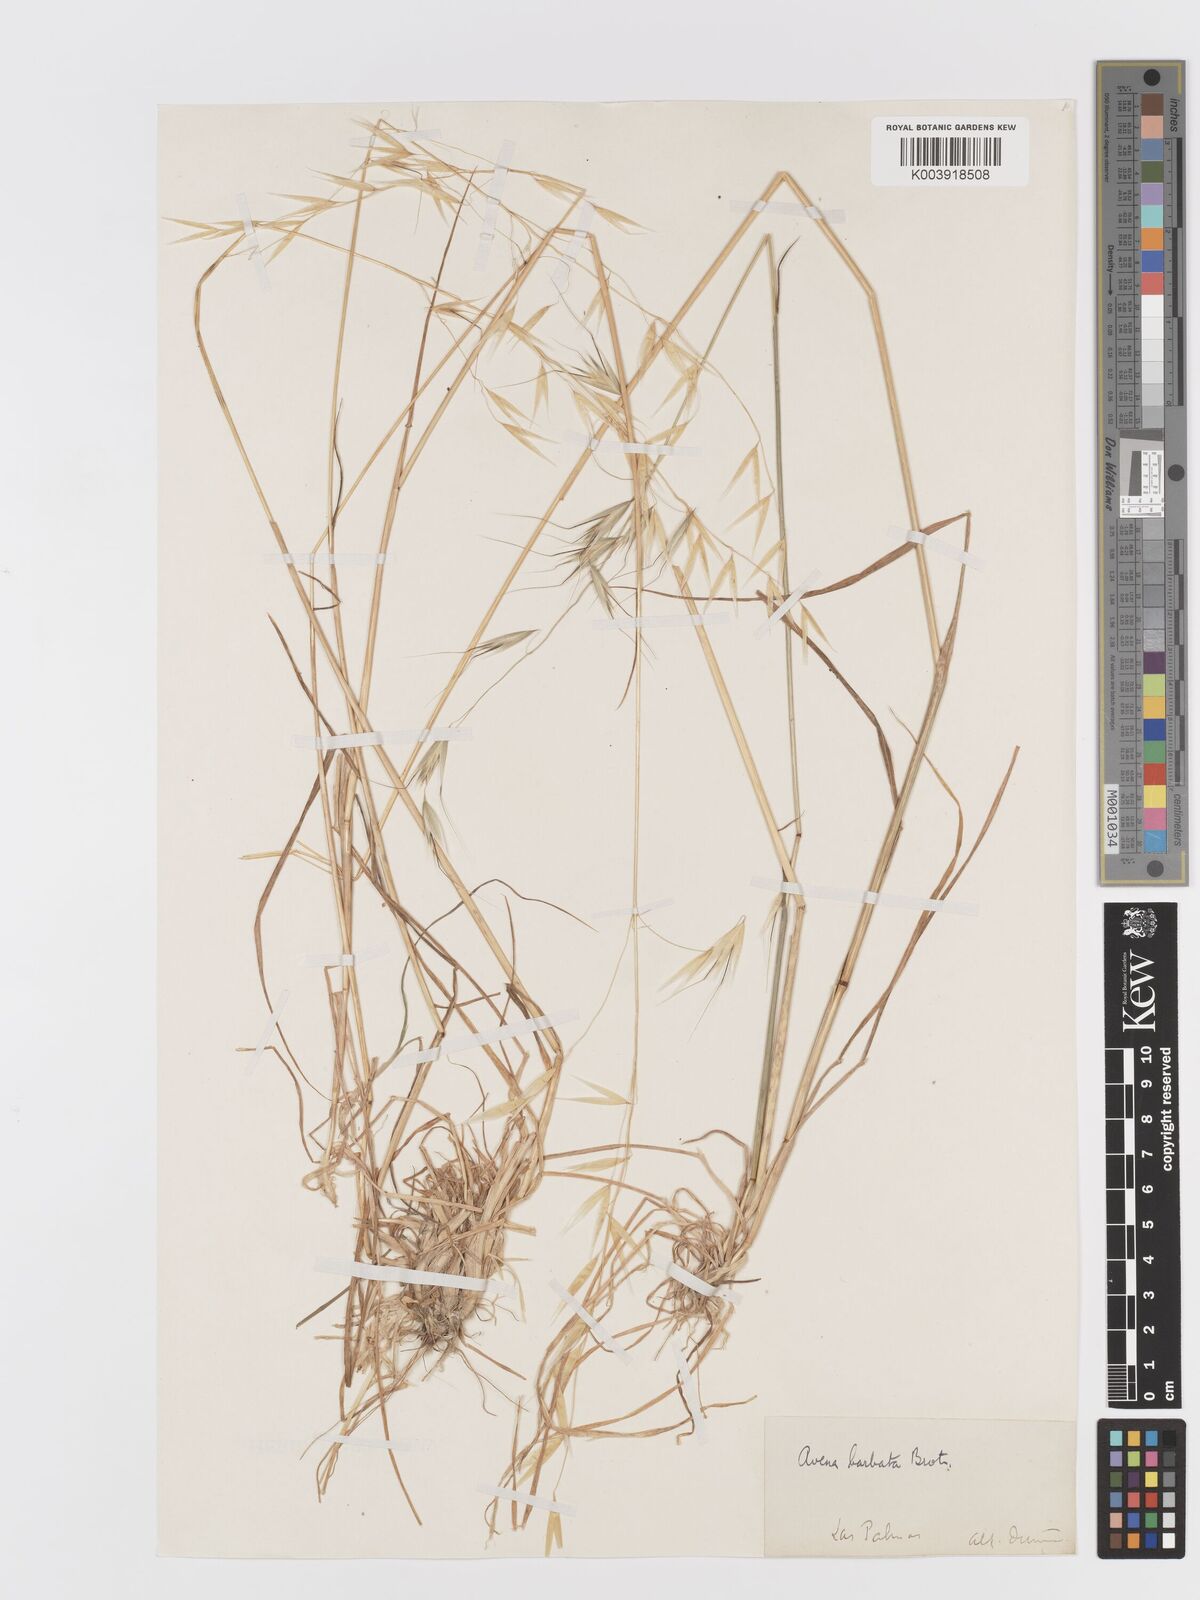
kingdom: Plantae
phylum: Tracheophyta
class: Liliopsida
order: Poales
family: Poaceae
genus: Avena
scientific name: Avena
